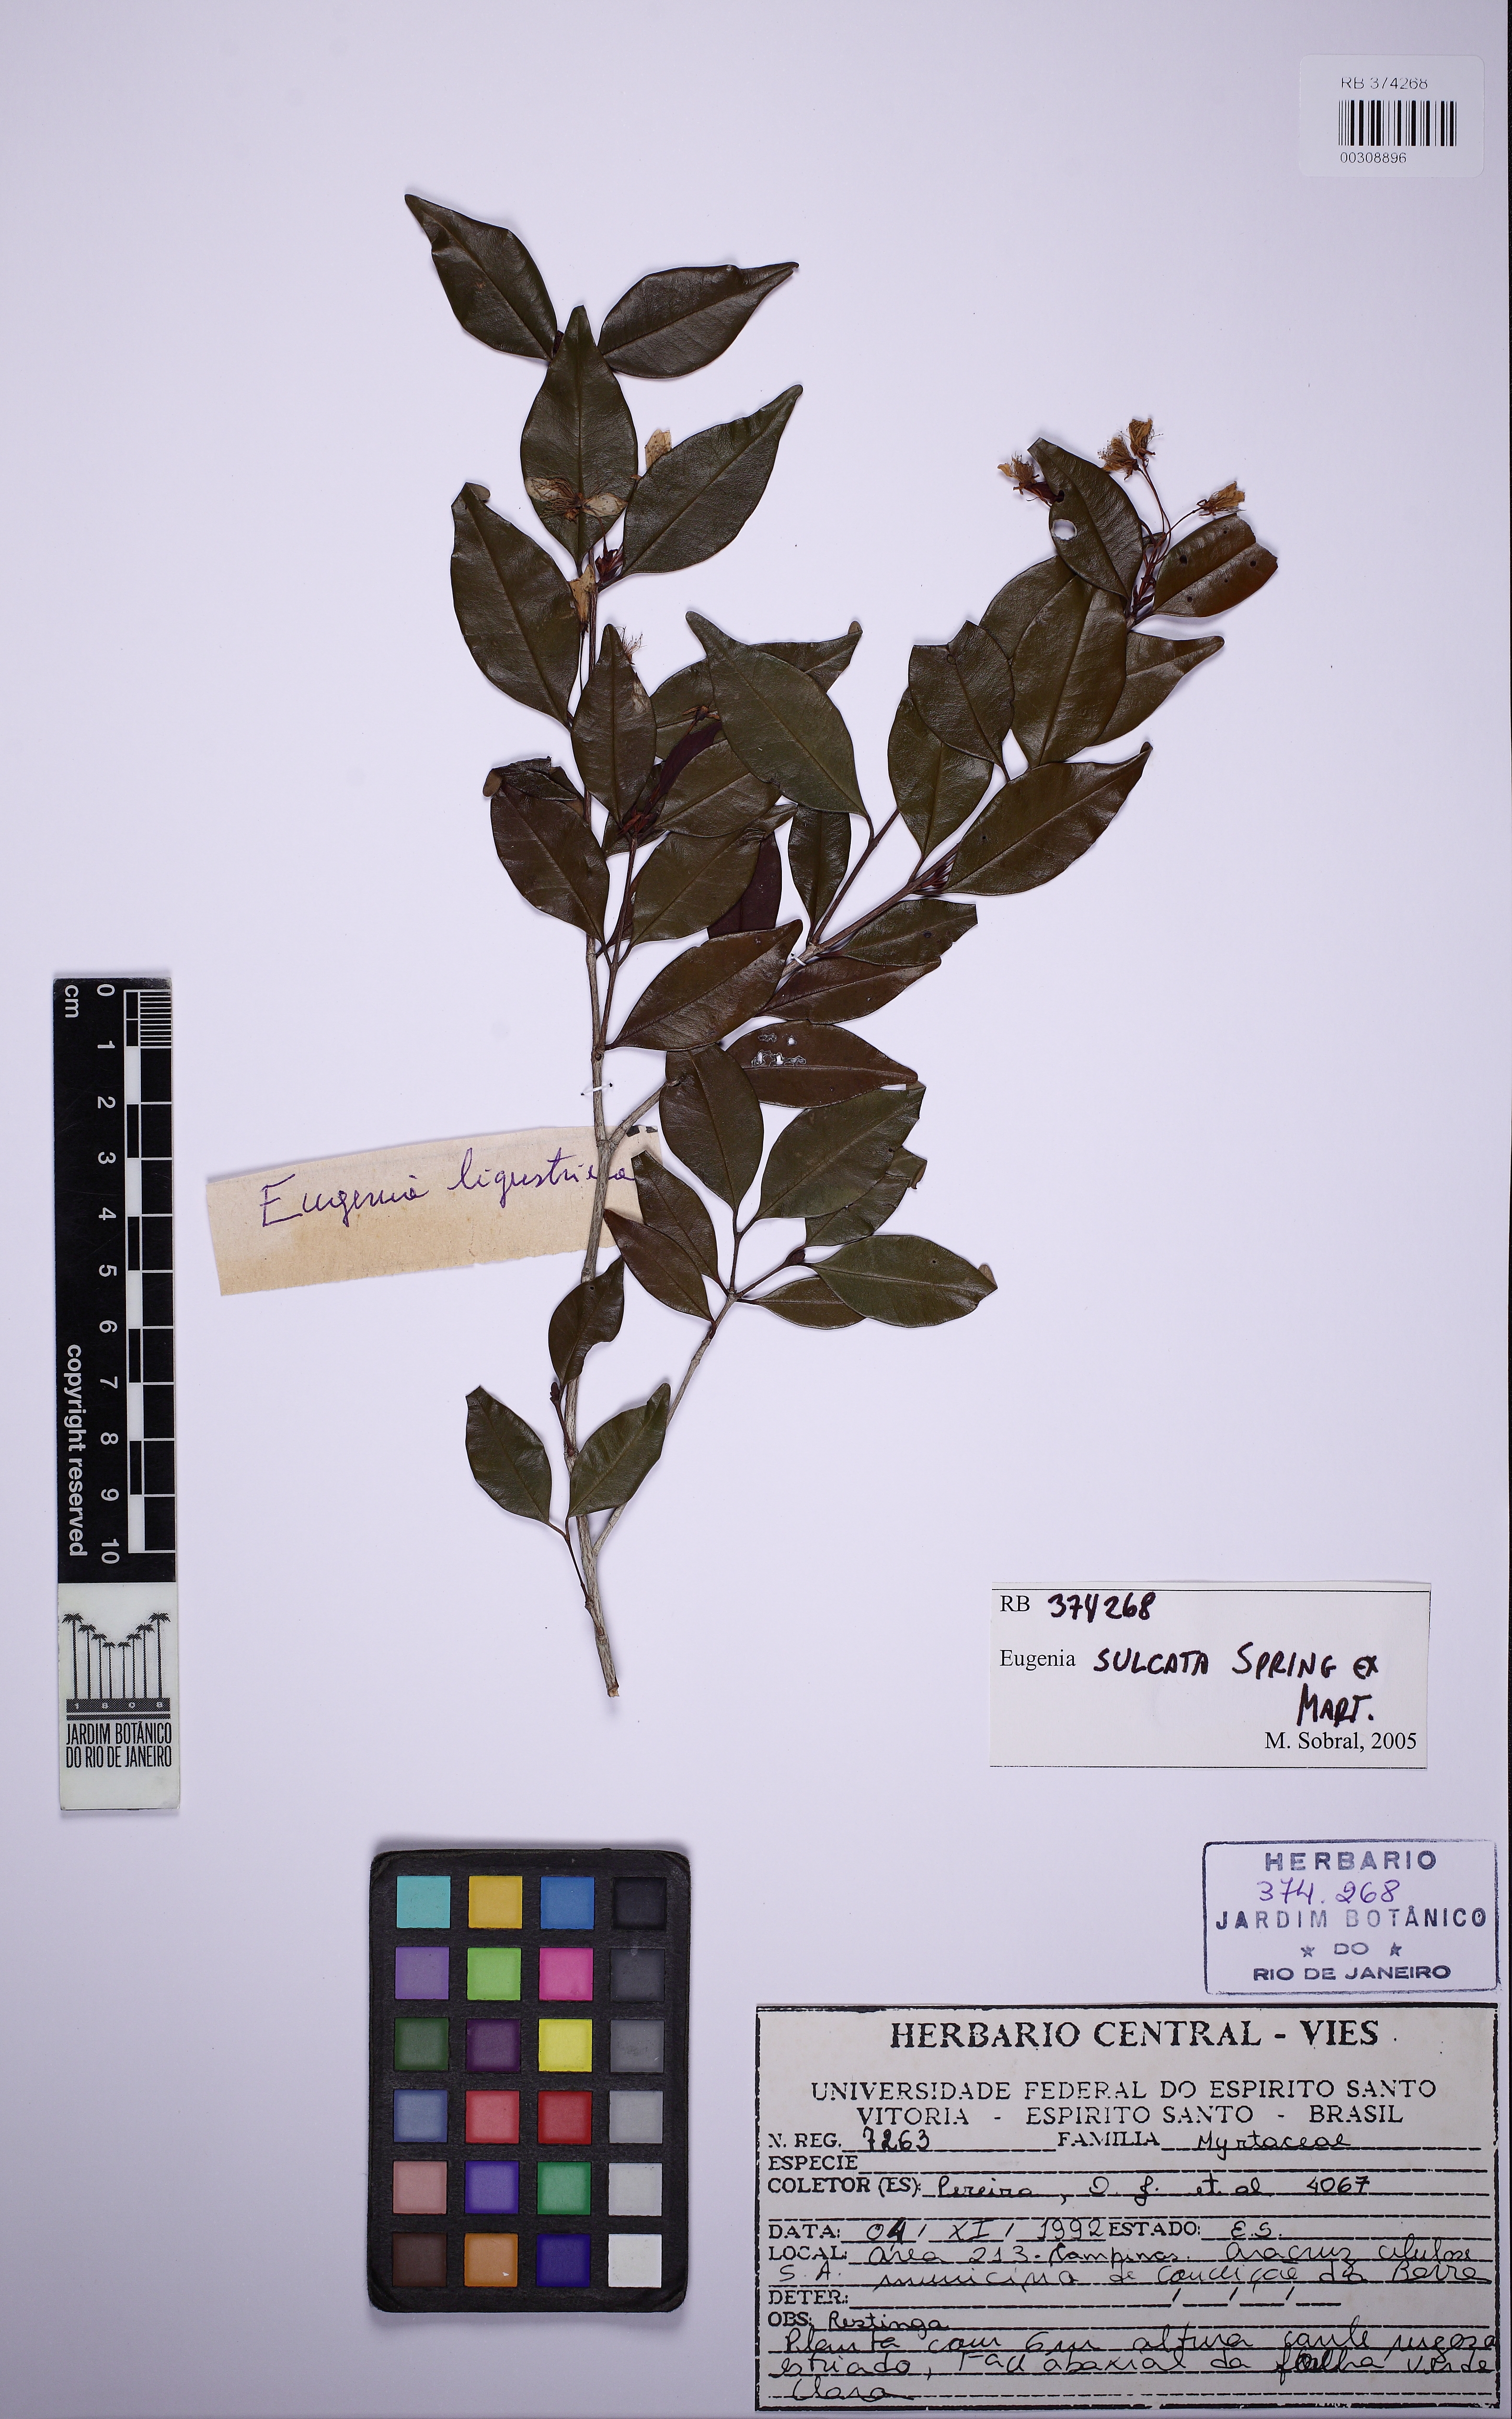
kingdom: Plantae
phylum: Tracheophyta
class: Magnoliopsida
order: Myrtales
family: Myrtaceae
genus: Eugenia
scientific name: Eugenia sulcata
